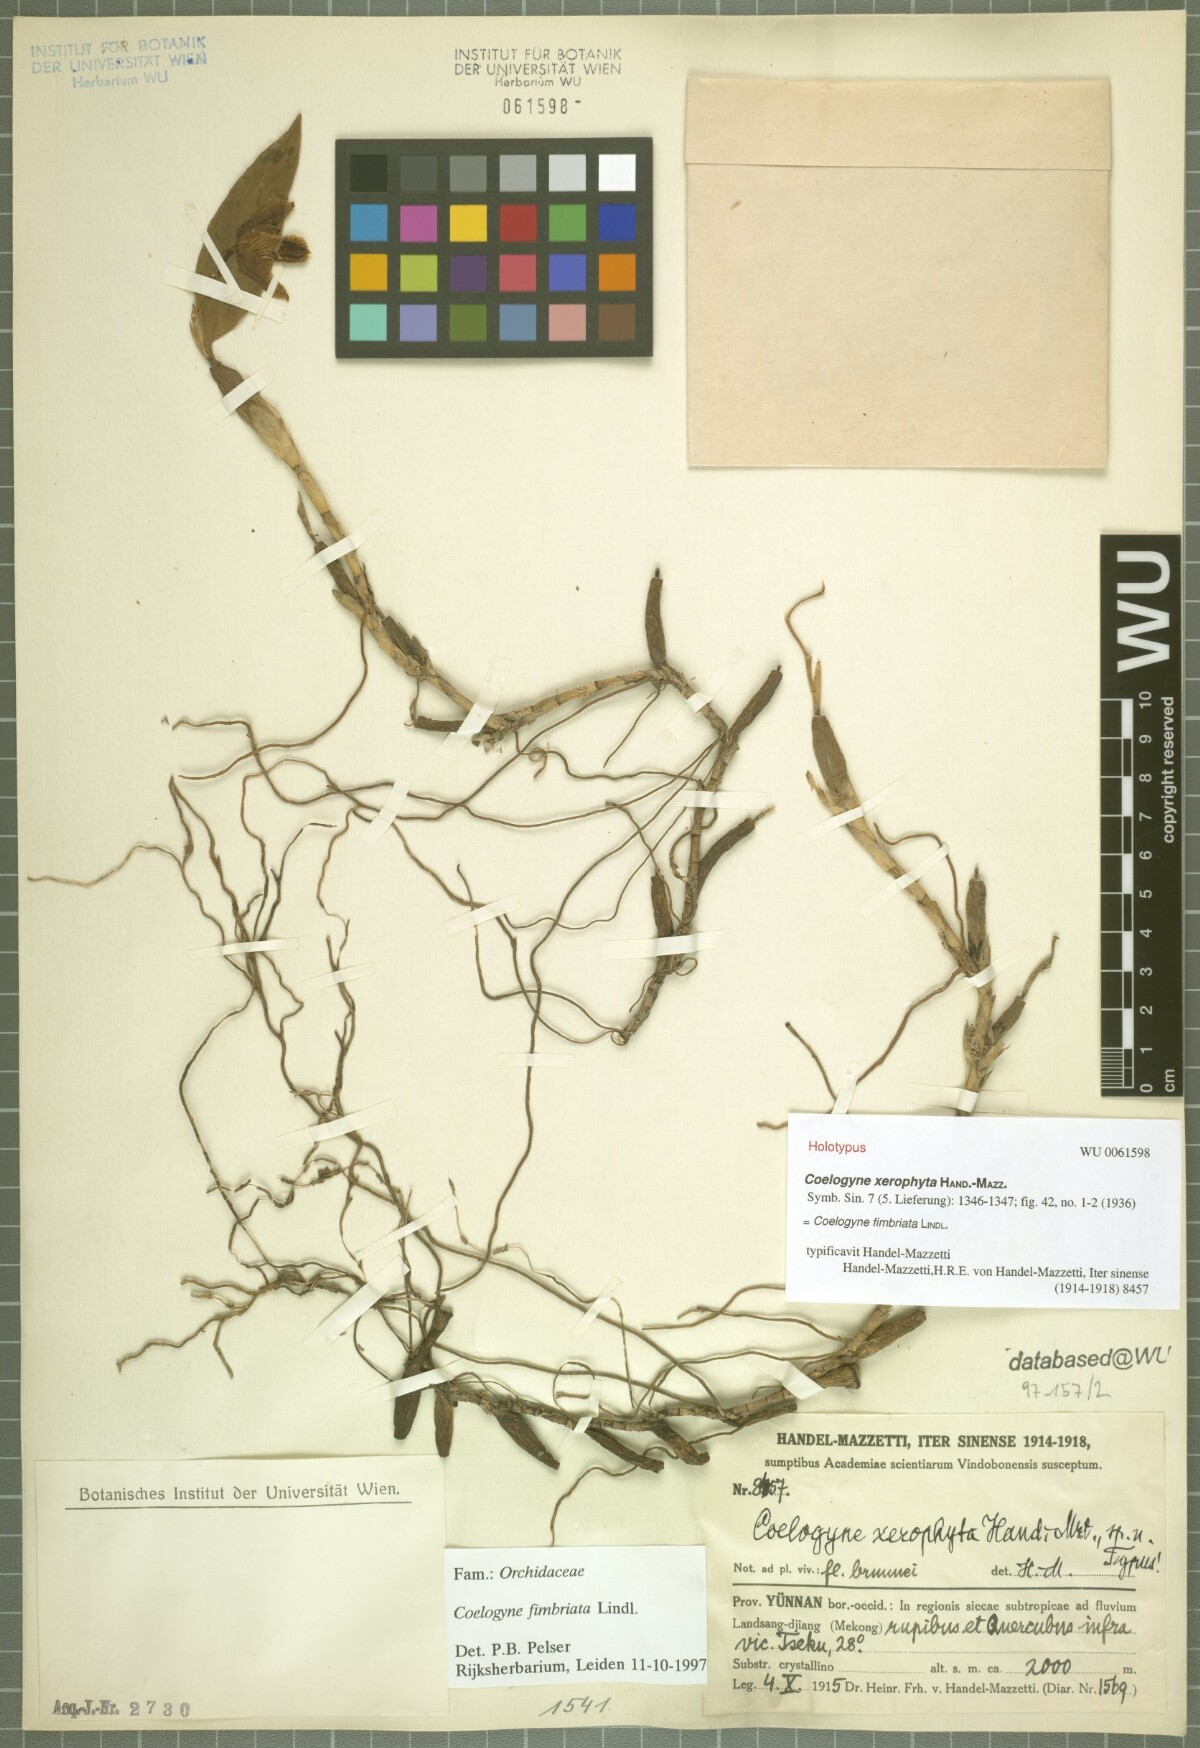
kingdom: Plantae
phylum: Tracheophyta
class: Liliopsida
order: Asparagales
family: Orchidaceae
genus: Coelogyne
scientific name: Coelogyne fimbriata
